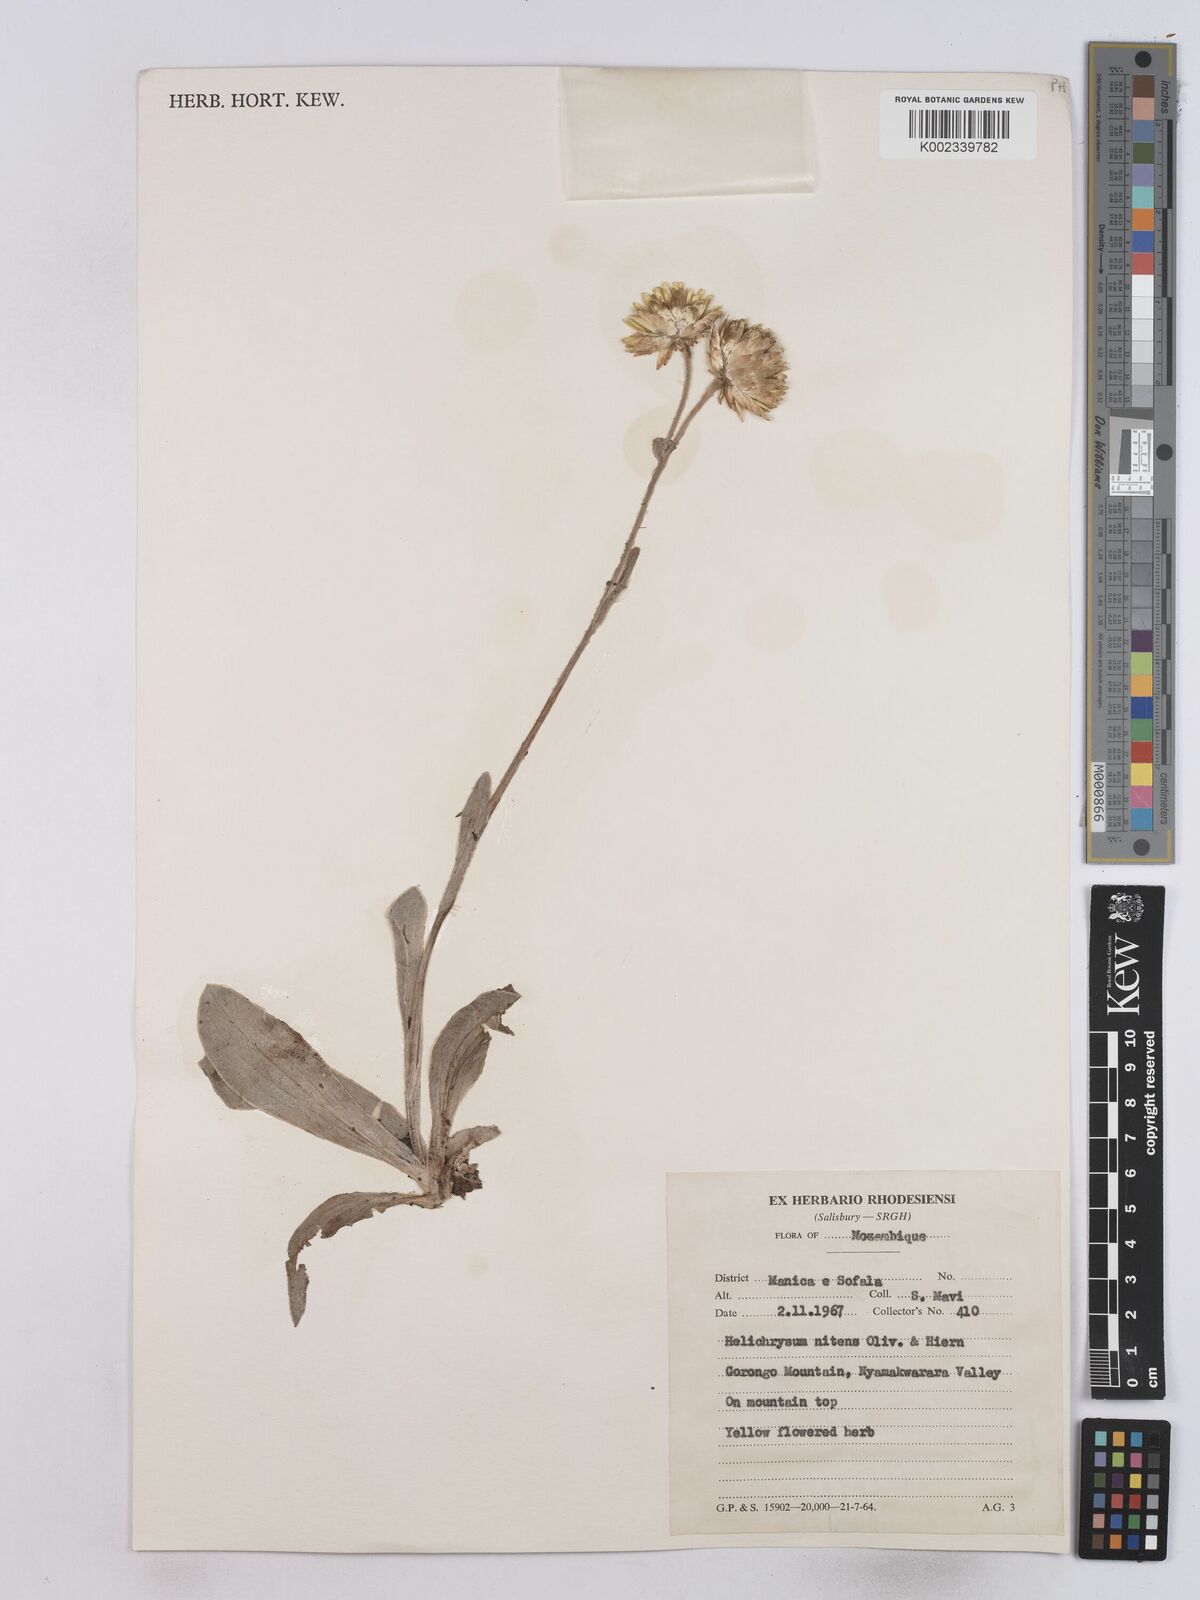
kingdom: Plantae
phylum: Tracheophyta
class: Magnoliopsida
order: Asterales
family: Asteraceae
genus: Helichrysum
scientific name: Helichrysum nitens
